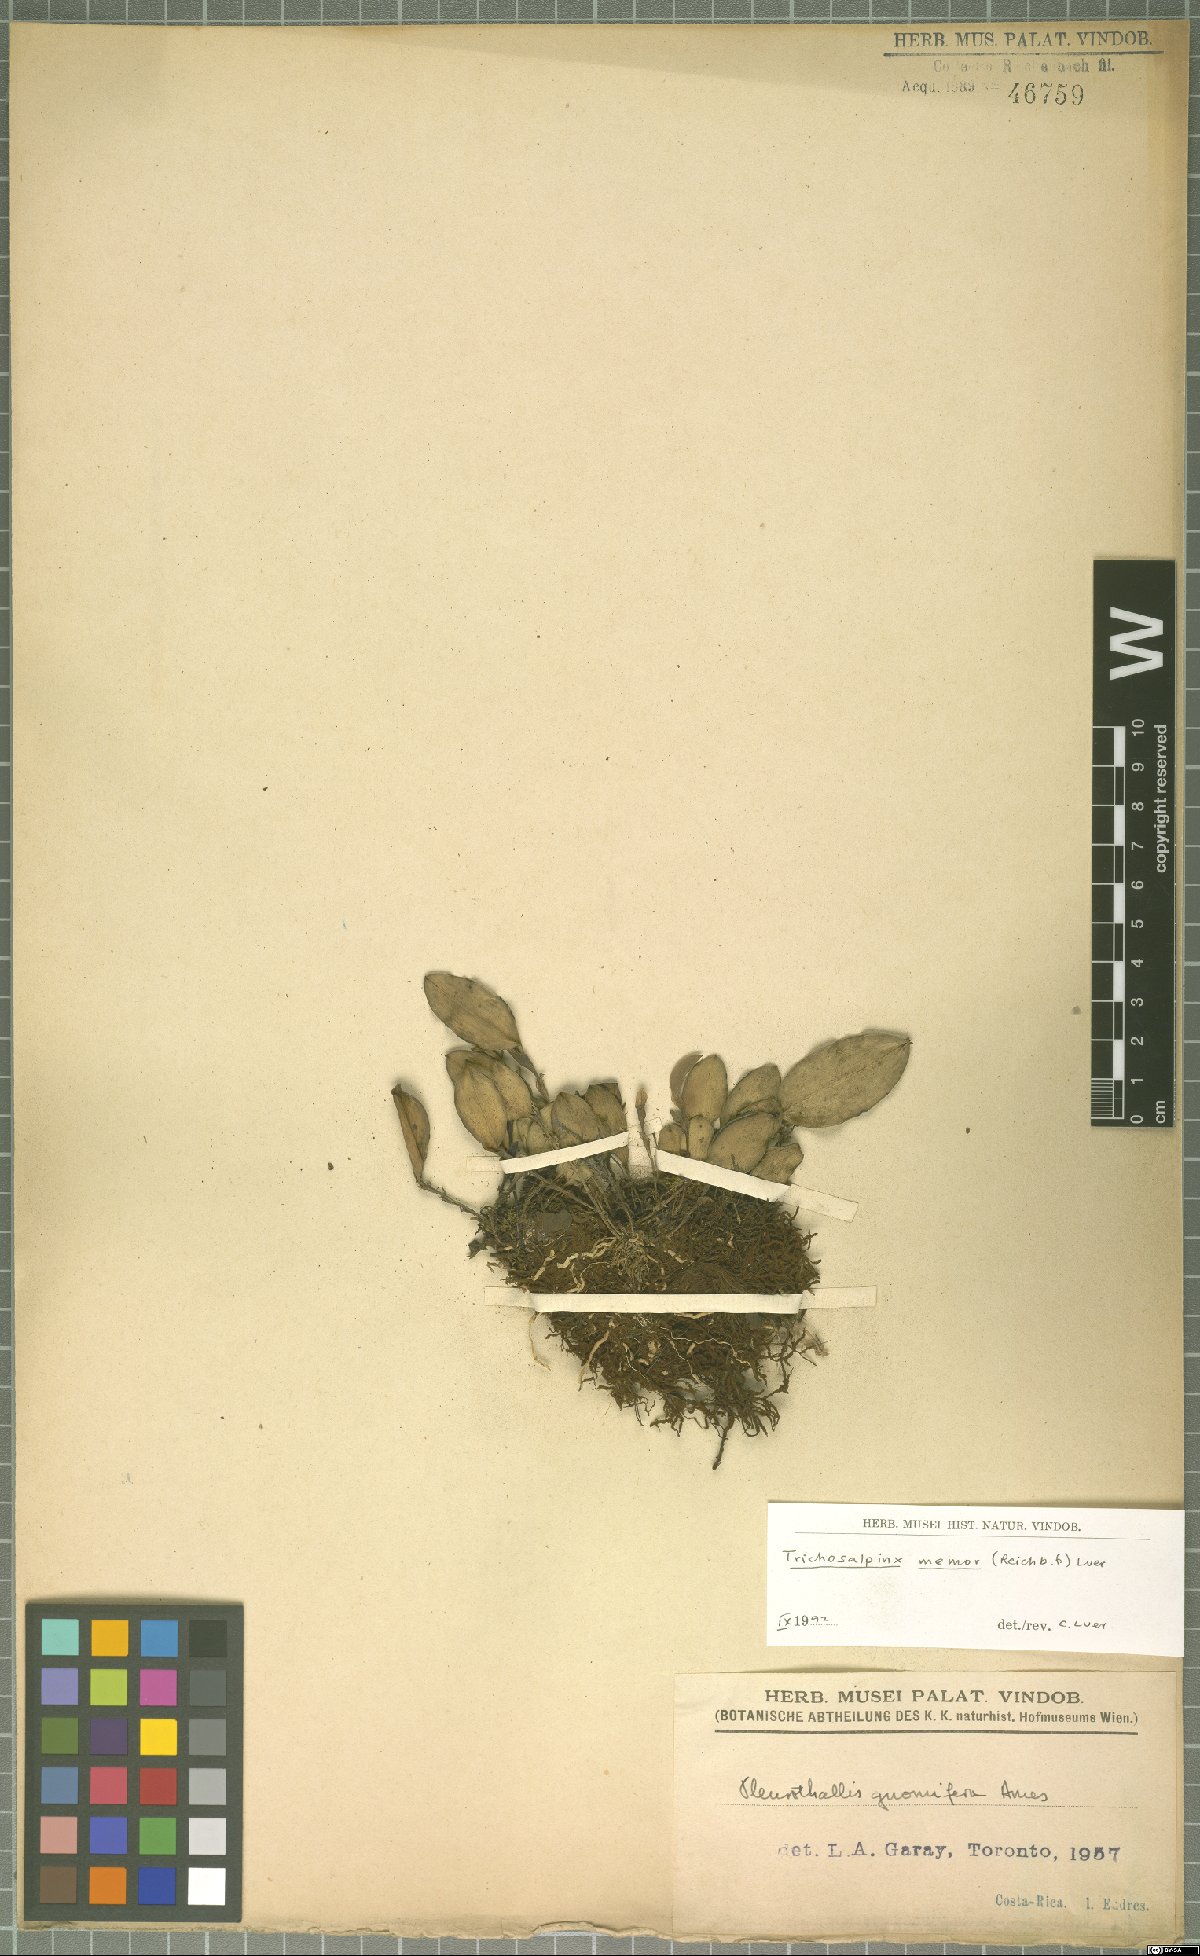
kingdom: Plantae
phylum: Tracheophyta
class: Liliopsida
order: Asparagales
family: Orchidaceae
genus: Trichosalpinx
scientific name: Trichosalpinx memor
